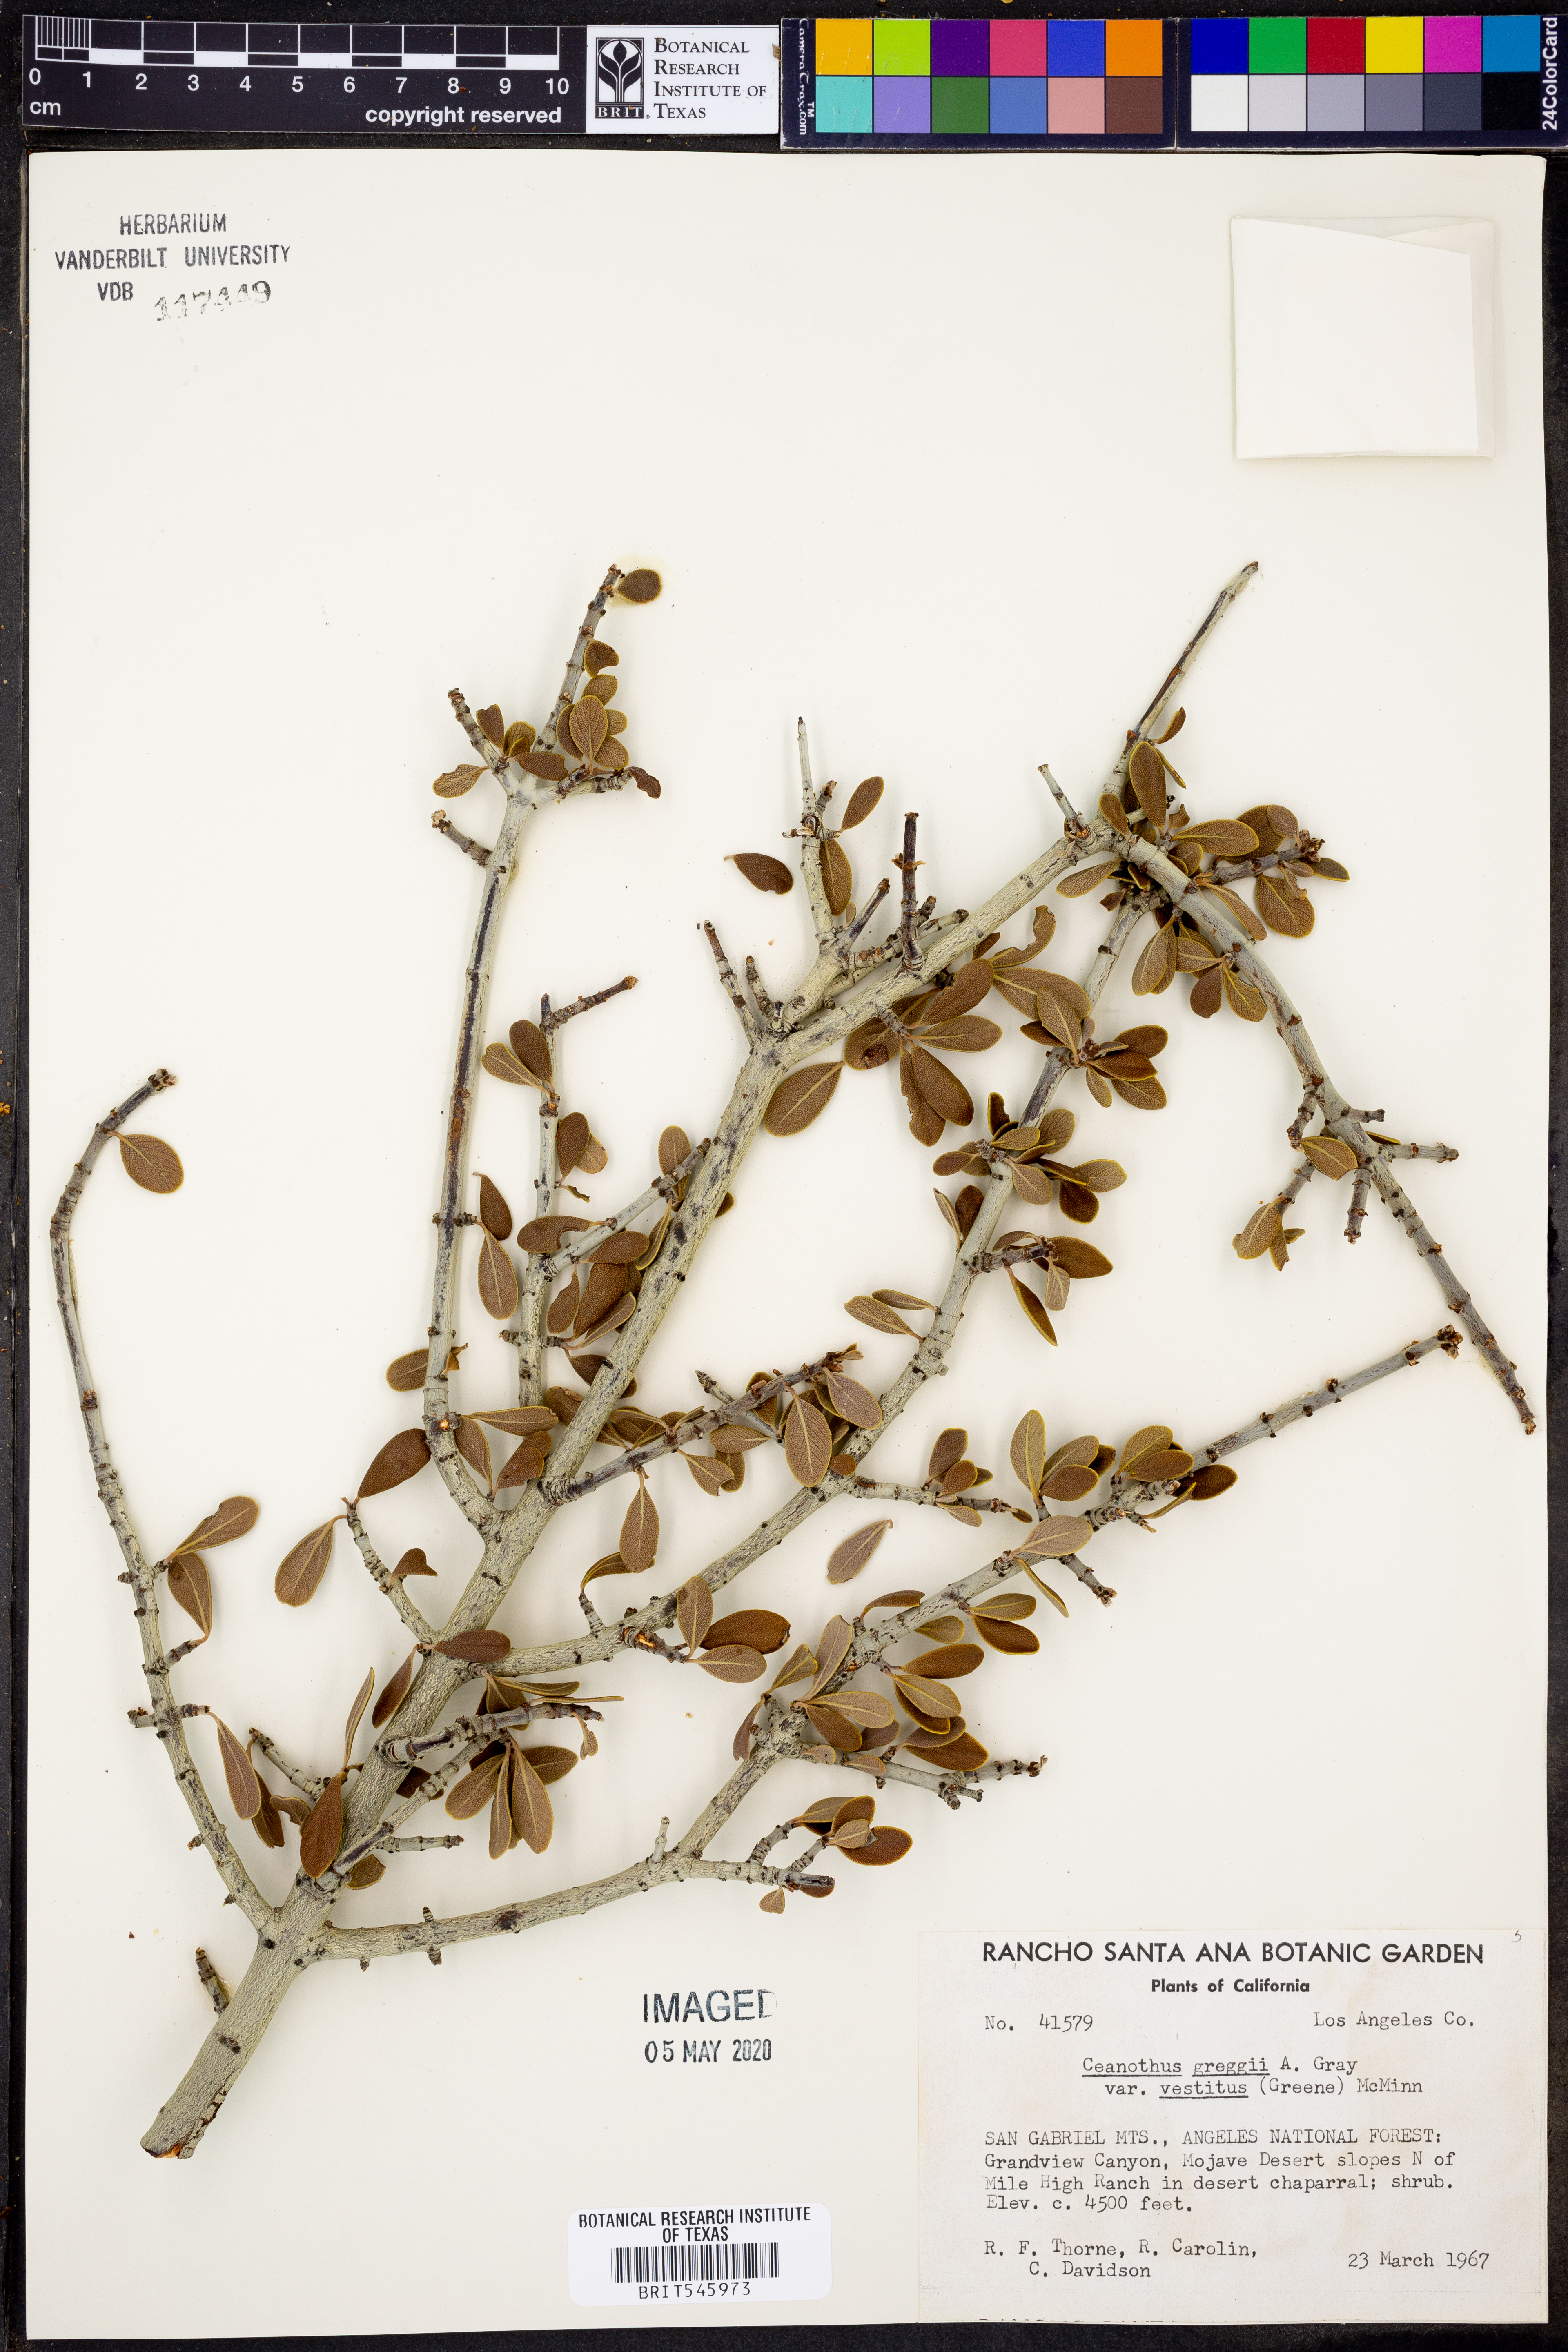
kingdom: Plantae
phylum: Tracheophyta
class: Magnoliopsida
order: Rosales
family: Rhamnaceae
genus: Ceanothus
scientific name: Ceanothus pauciflorus
